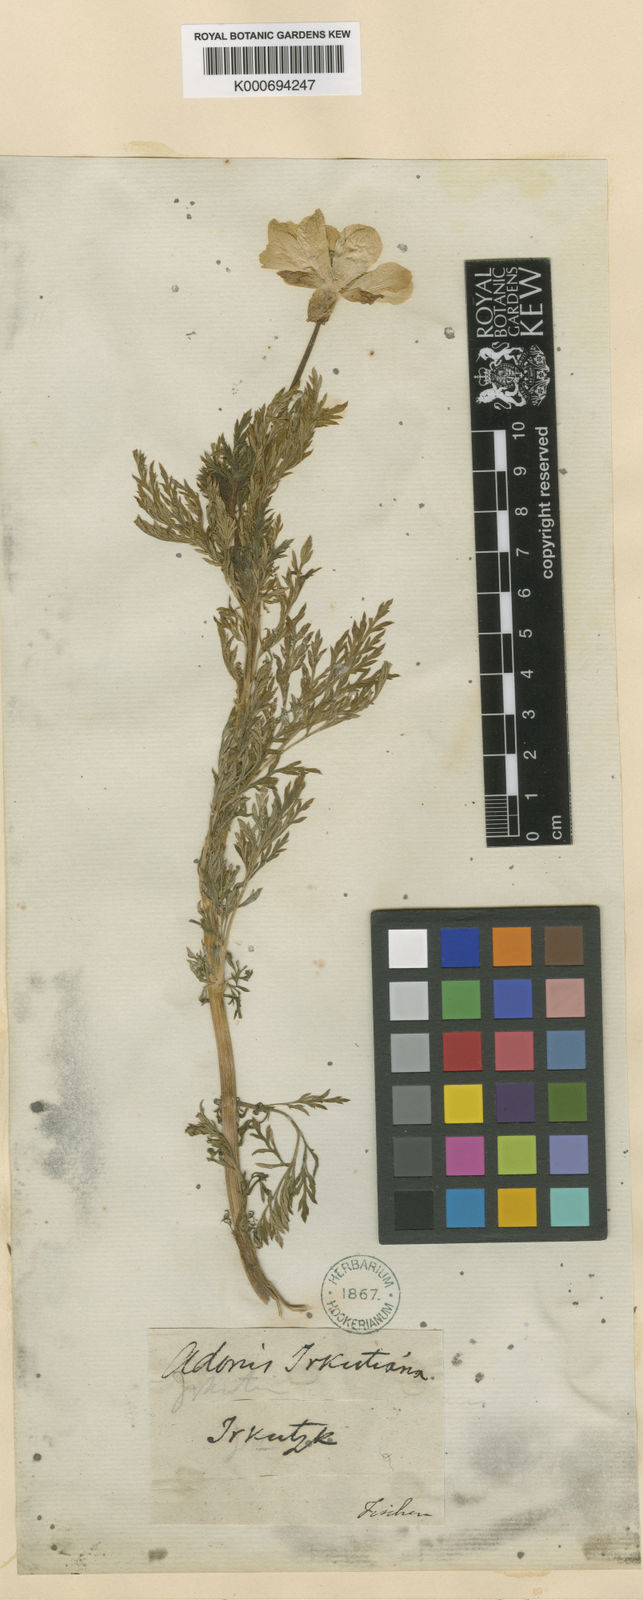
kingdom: Plantae
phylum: Tracheophyta
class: Magnoliopsida
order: Ranunculales
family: Ranunculaceae
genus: Adonis
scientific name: Adonis vernalis
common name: Yellow pheasants-eye
